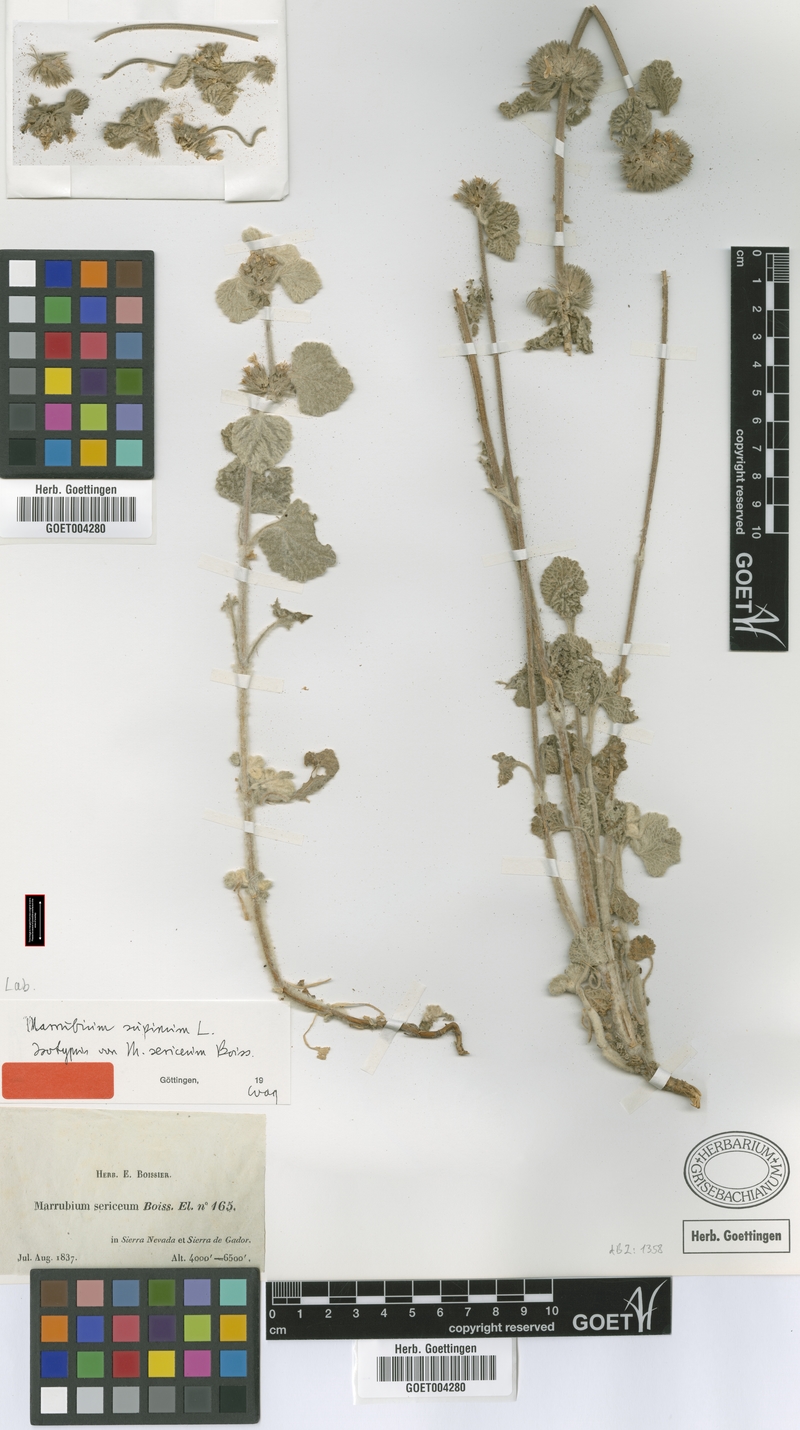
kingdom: Plantae
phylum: Tracheophyta
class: Magnoliopsida
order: Lamiales
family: Lamiaceae
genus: Marrubium
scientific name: Marrubium supinum
